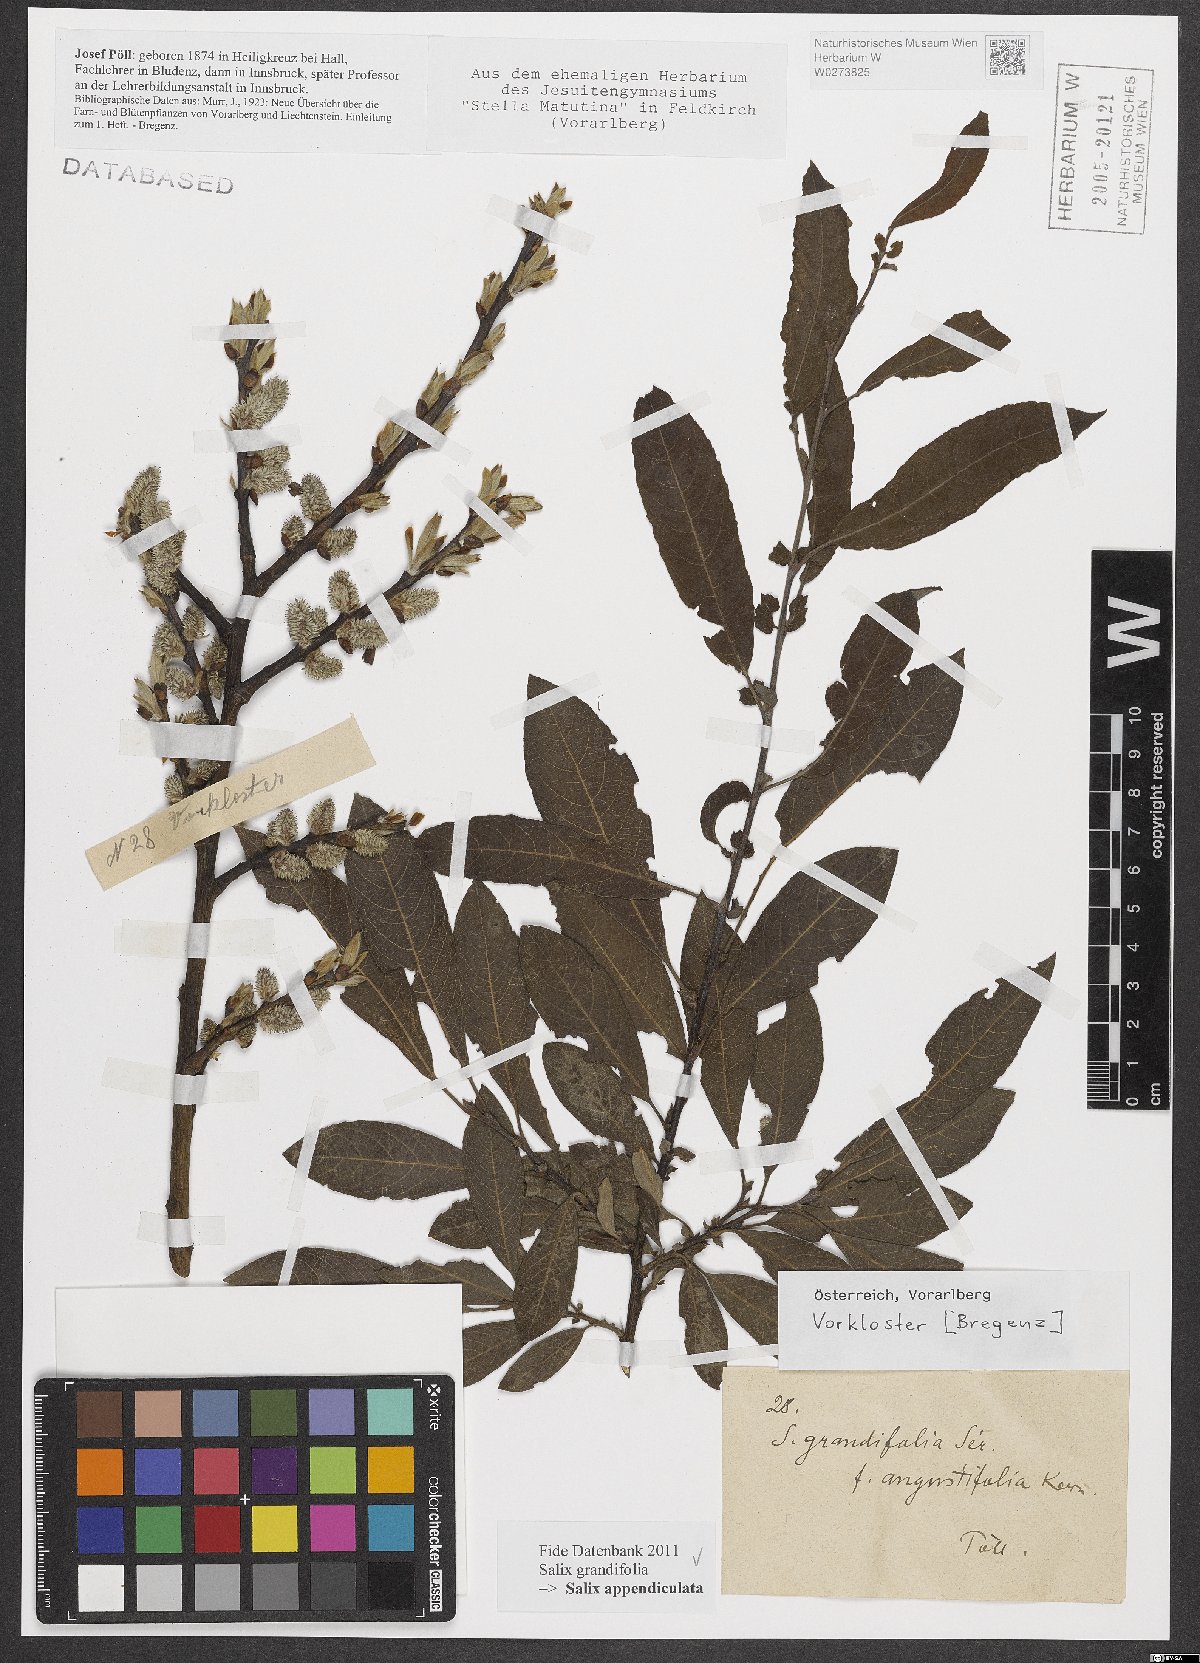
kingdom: Plantae
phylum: Tracheophyta
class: Magnoliopsida
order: Malpighiales
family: Salicaceae
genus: Salix
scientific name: Salix appendiculata
